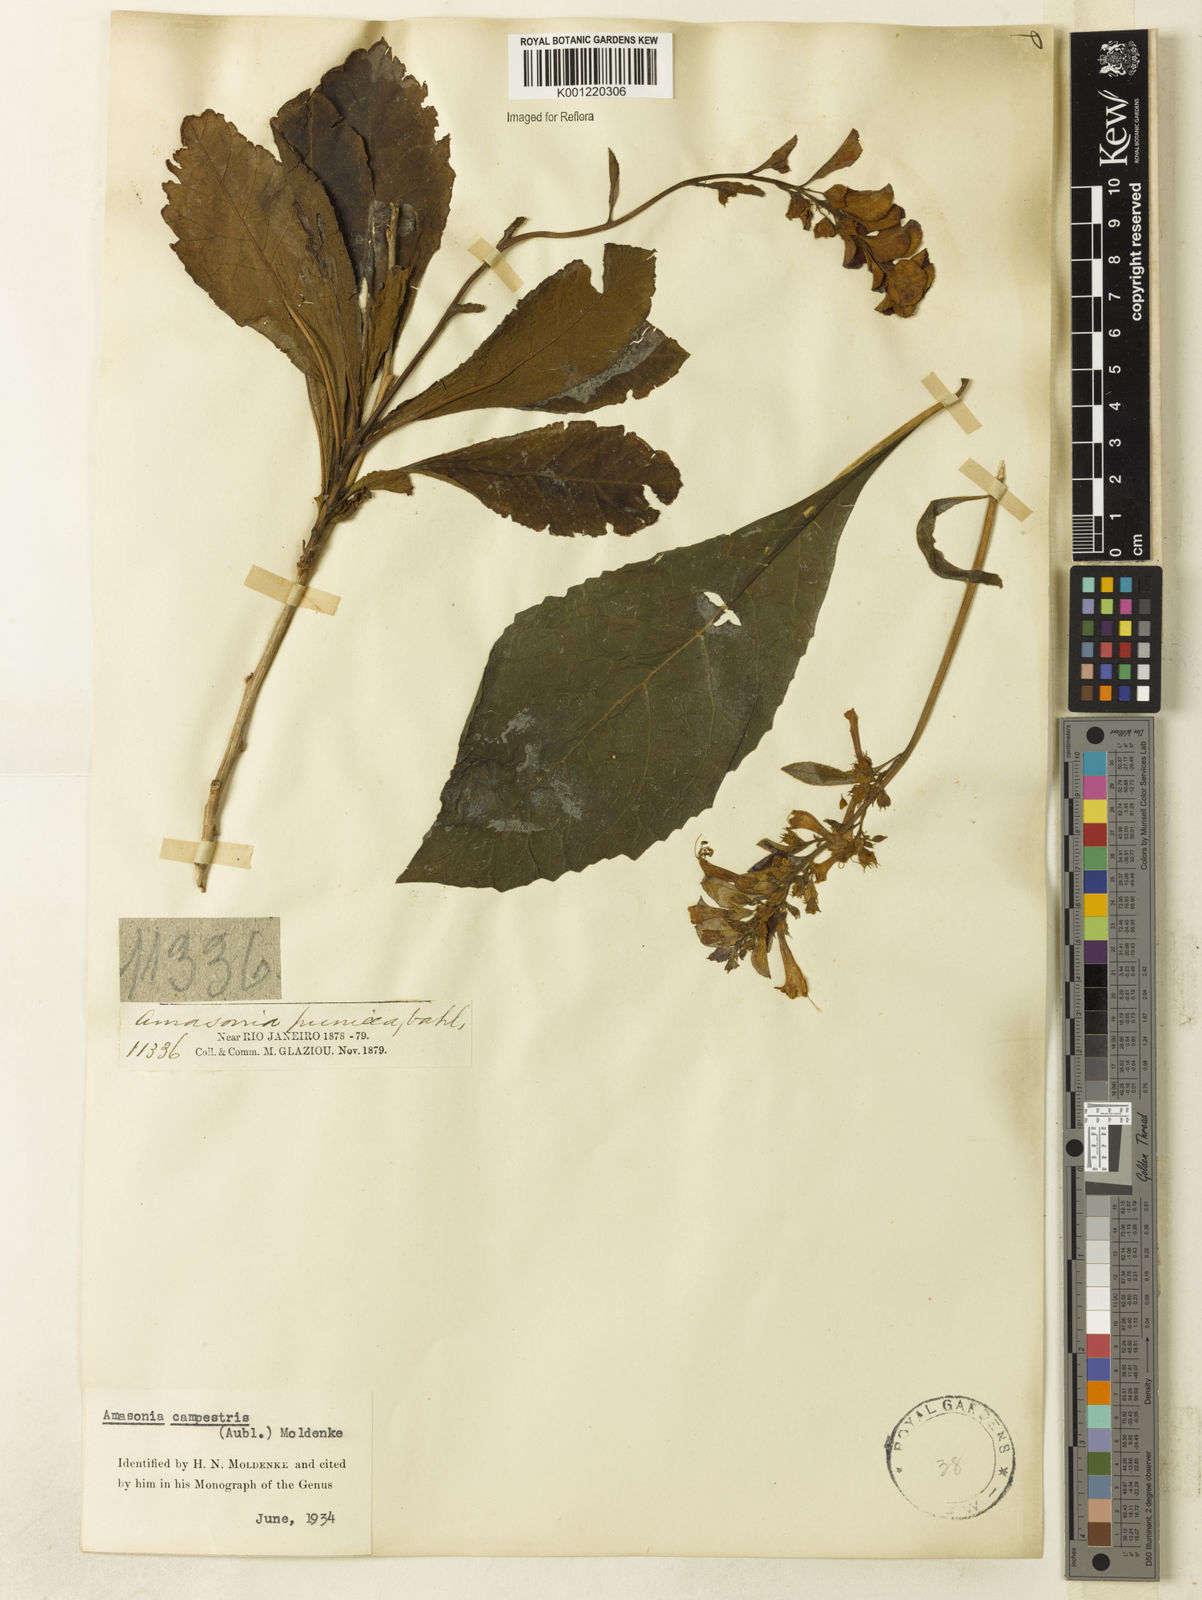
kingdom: Plantae
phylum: Tracheophyta
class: Magnoliopsida
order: Lamiales
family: Lamiaceae
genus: Amasonia
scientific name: Amasonia campestris
